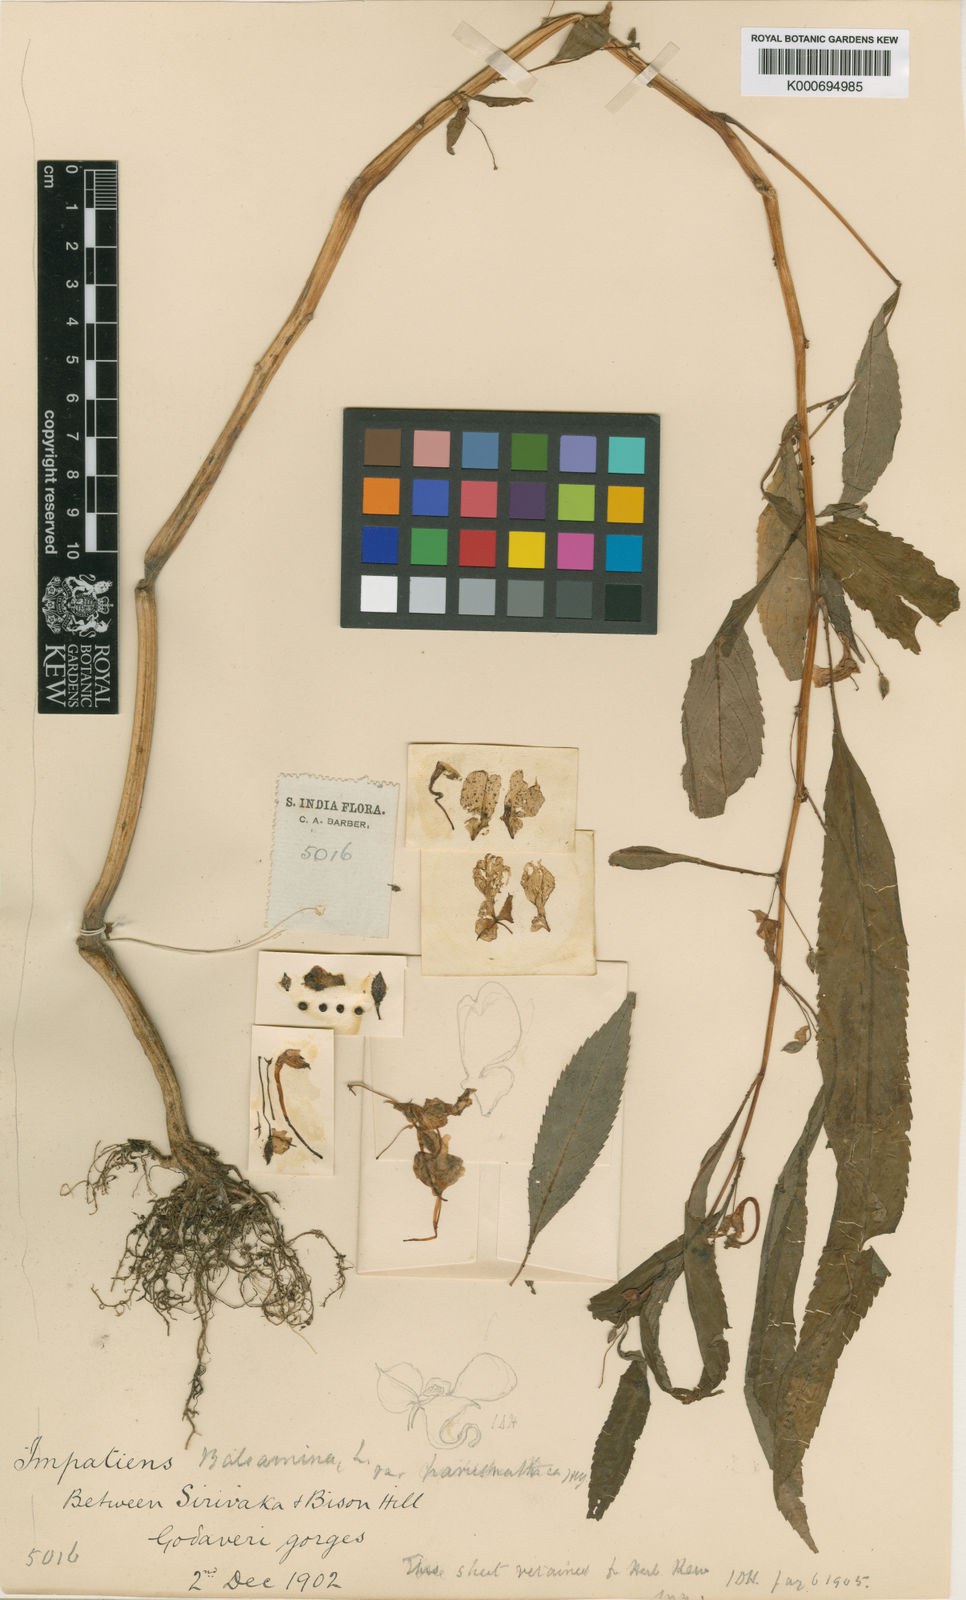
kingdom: Plantae
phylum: Tracheophyta
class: Magnoliopsida
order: Ericales
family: Balsaminaceae
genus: Impatiens
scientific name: Impatiens balsamina
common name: Balsam
